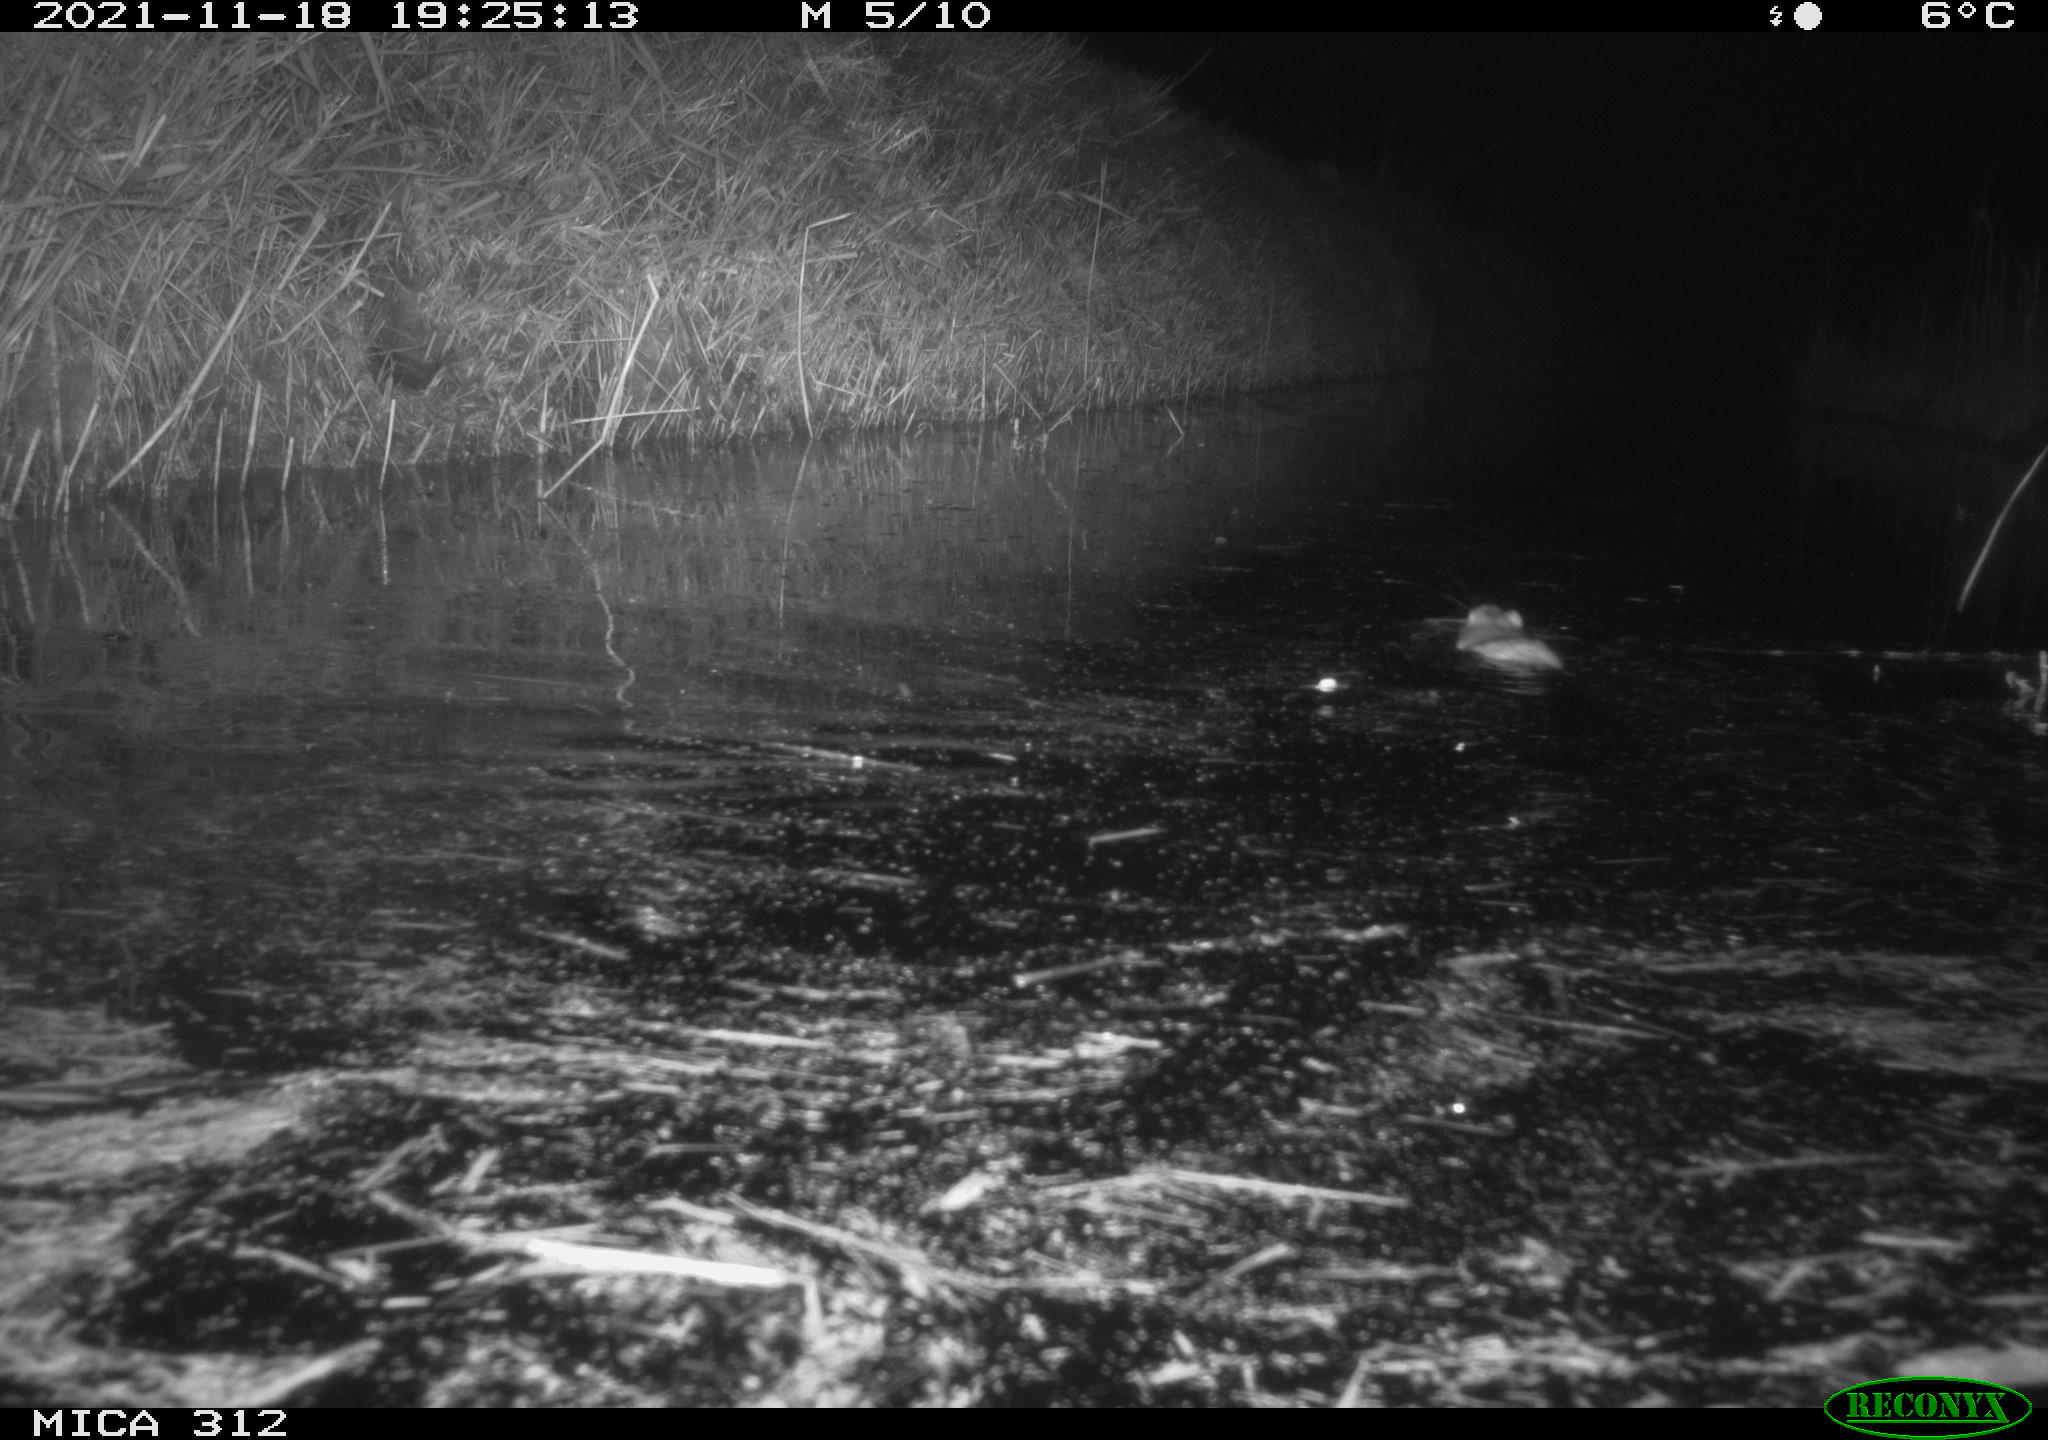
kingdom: Animalia
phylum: Chordata
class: Mammalia
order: Rodentia
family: Muridae
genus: Rattus
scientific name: Rattus norvegicus
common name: Brown rat
